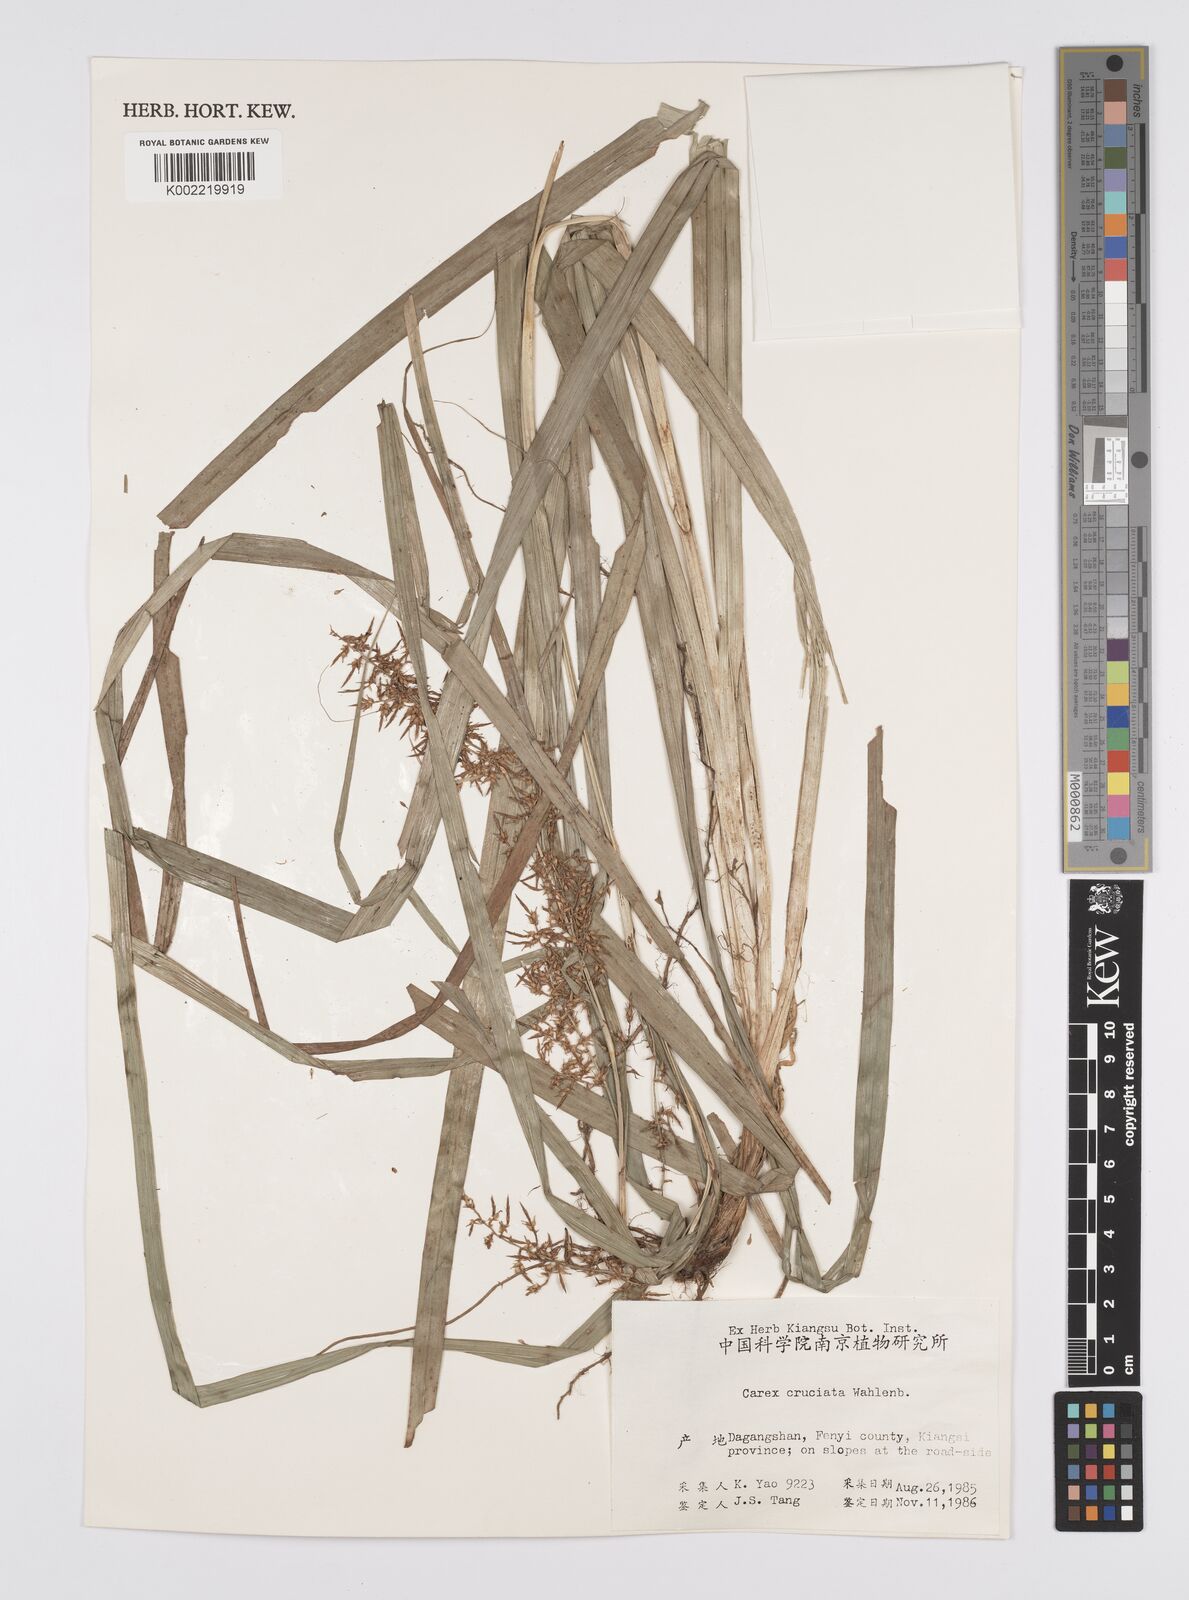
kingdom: Plantae
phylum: Tracheophyta
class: Liliopsida
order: Poales
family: Cyperaceae
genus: Carex
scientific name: Carex cruciata
